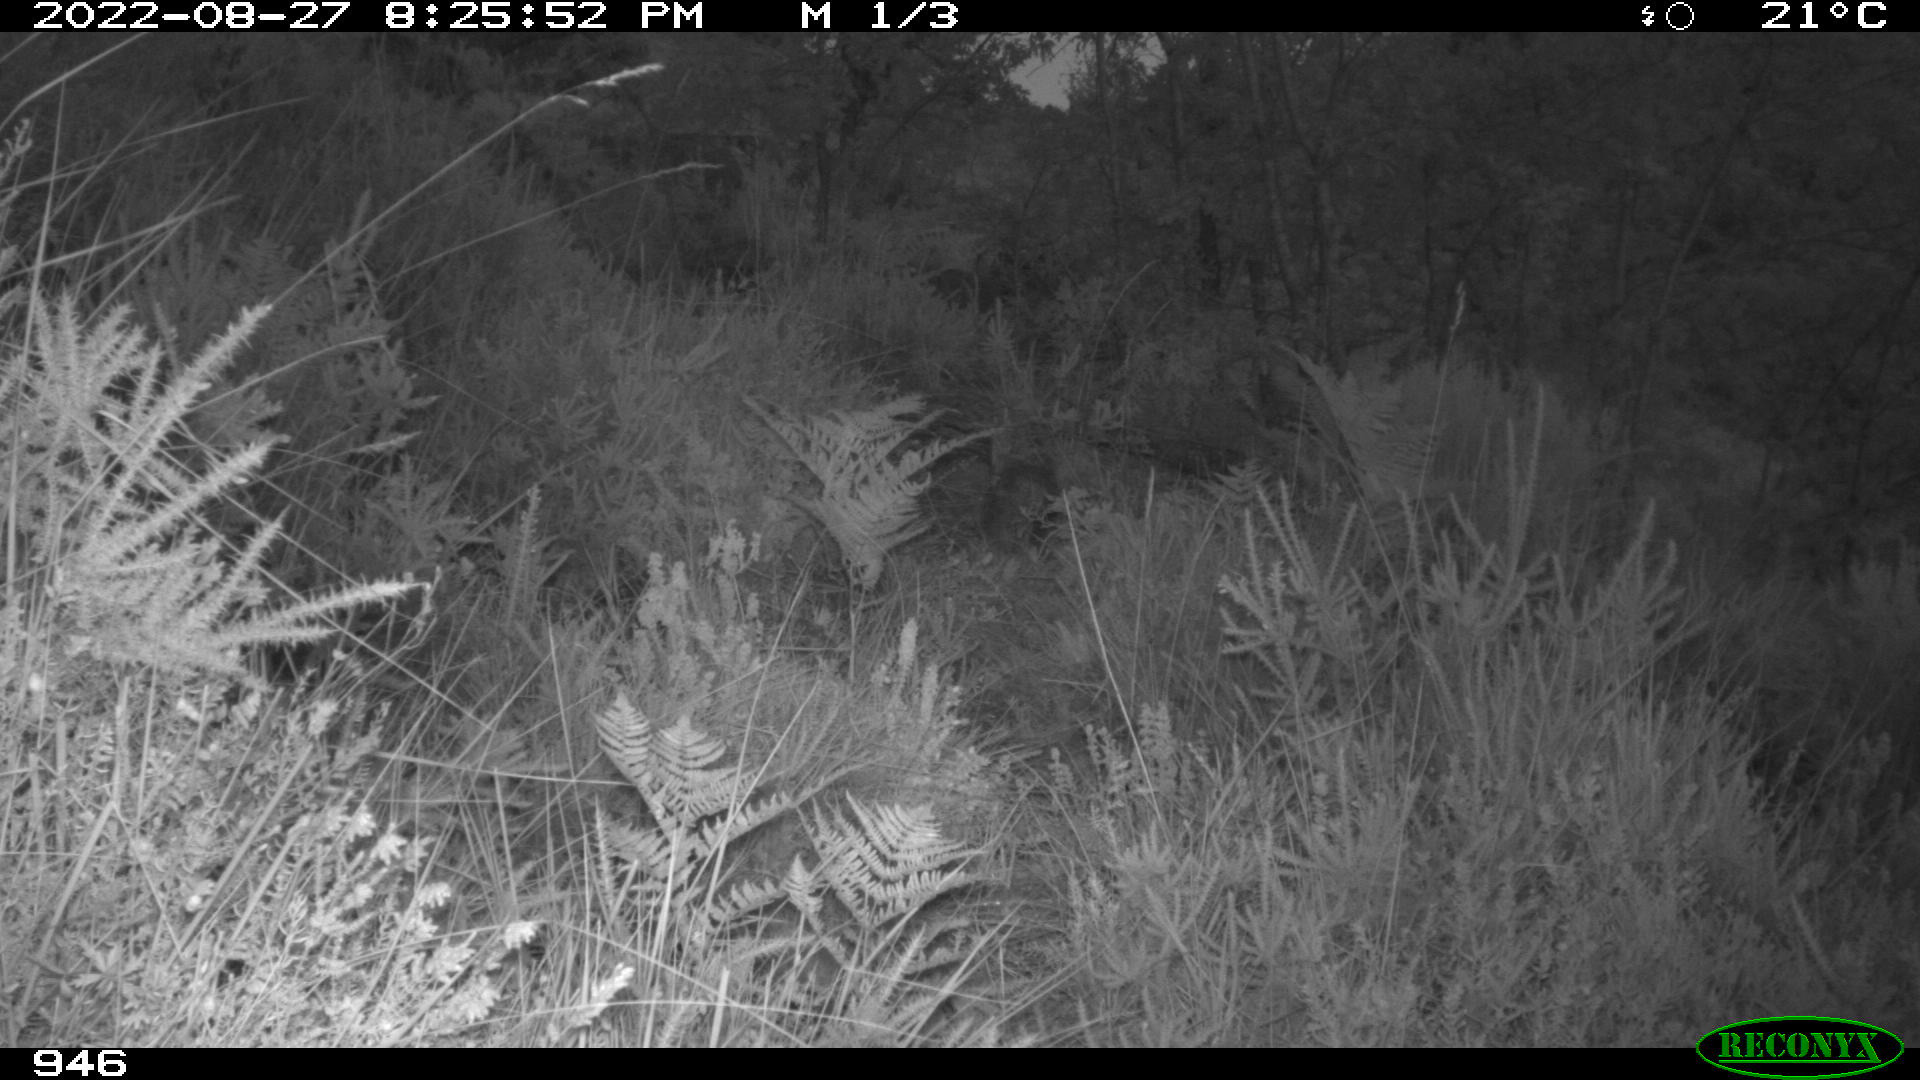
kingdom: Animalia
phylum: Chordata
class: Mammalia
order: Artiodactyla
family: Bovidae
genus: Bos
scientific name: Bos taurus
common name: Domesticated cattle
